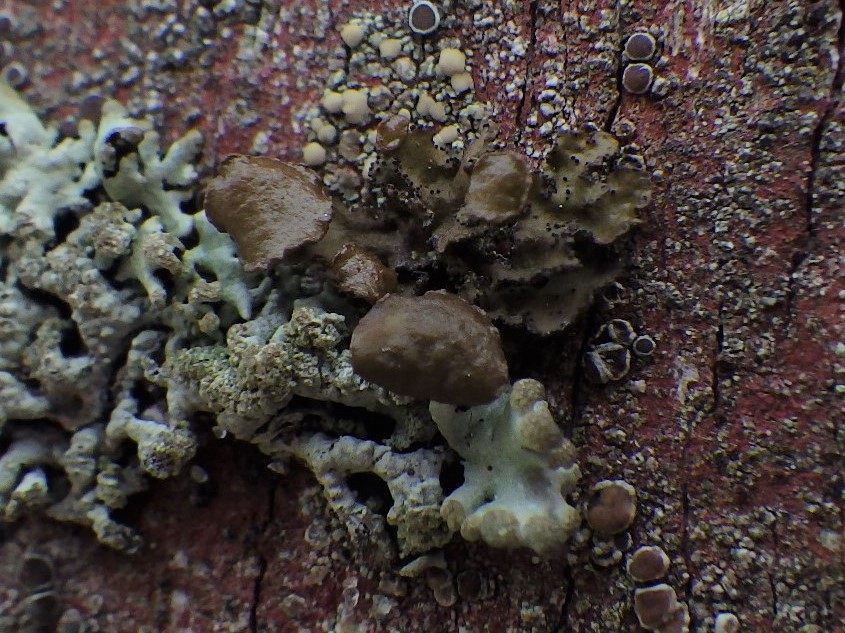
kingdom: Fungi
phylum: Ascomycota
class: Lecanoromycetes
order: Lecanorales
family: Parmeliaceae
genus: Cetraria
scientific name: Cetraria sepincola
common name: tue-kruslav
